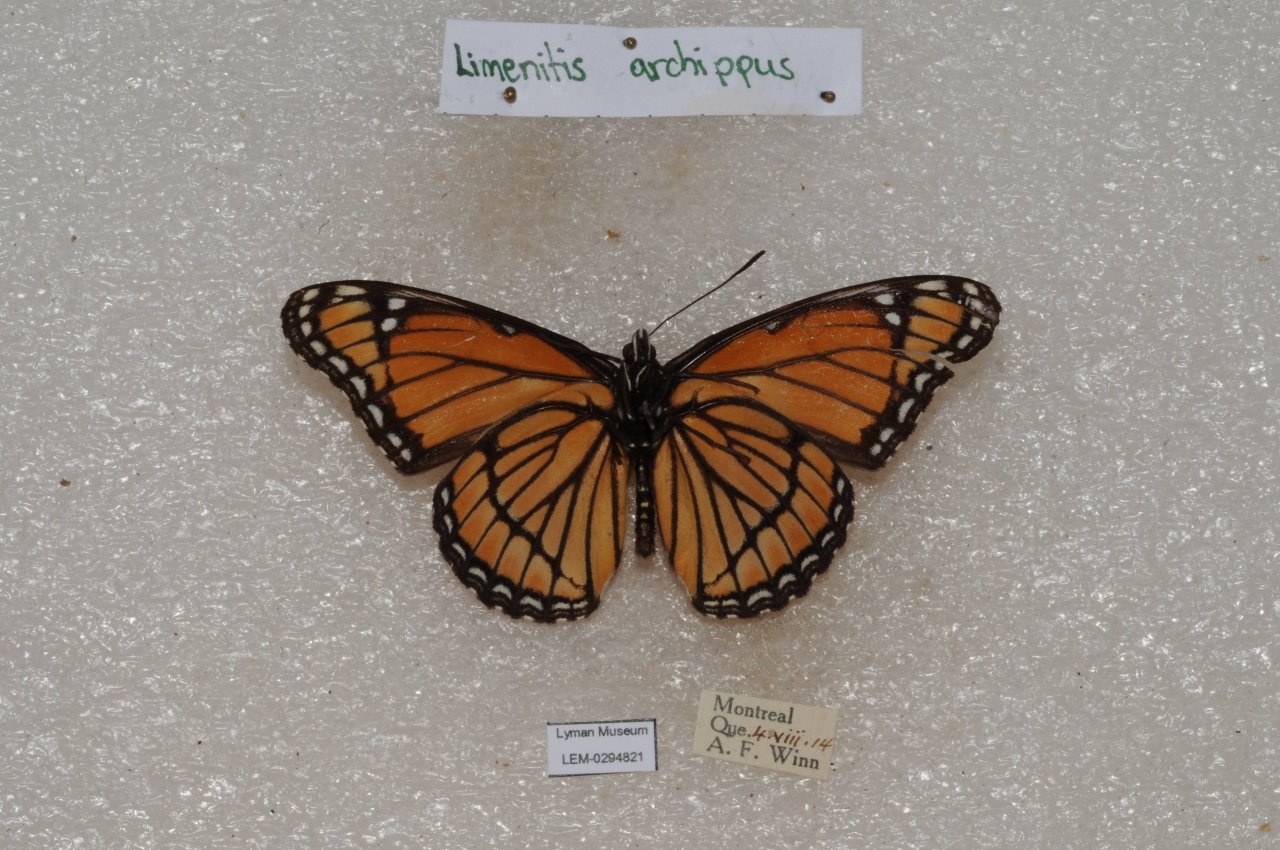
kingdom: Animalia
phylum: Arthropoda
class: Insecta
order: Lepidoptera
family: Nymphalidae
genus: Limenitis
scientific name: Limenitis archippus
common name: Viceroy
